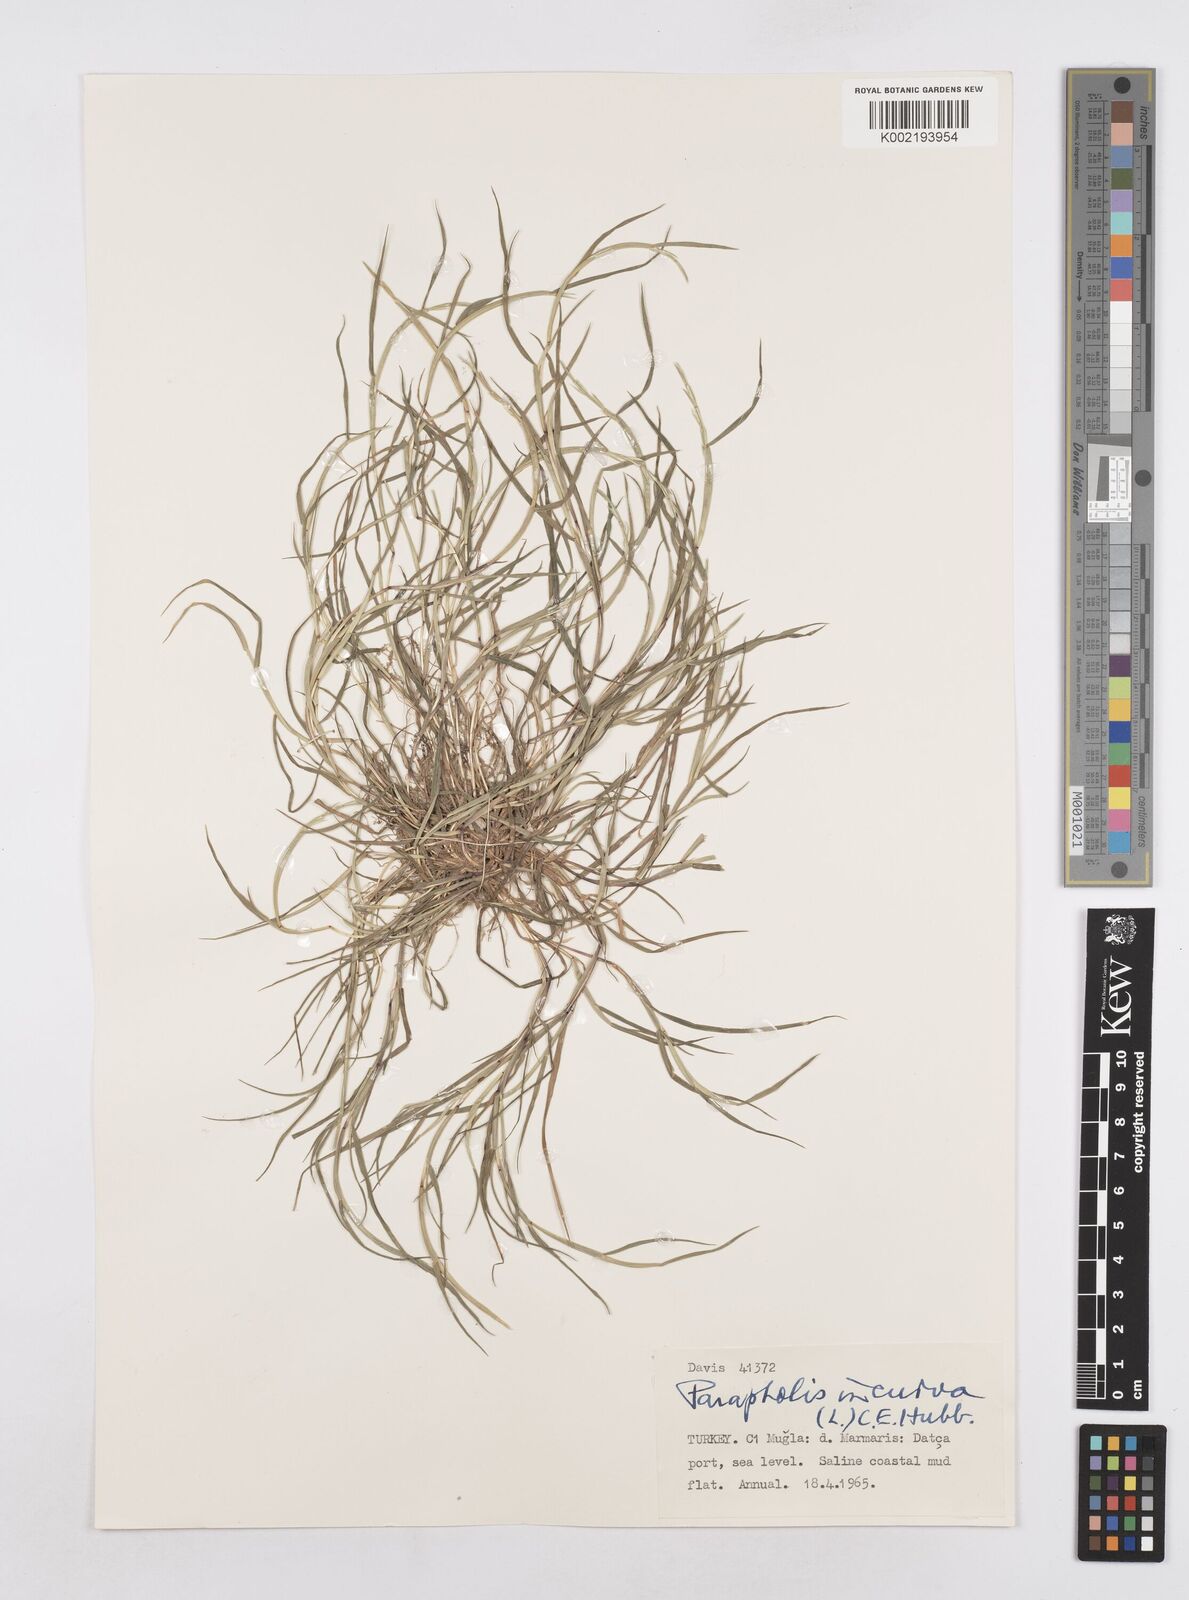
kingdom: Plantae
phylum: Tracheophyta
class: Liliopsida
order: Poales
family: Poaceae
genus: Parapholis
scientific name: Parapholis incurva
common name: Curved sicklegrass
